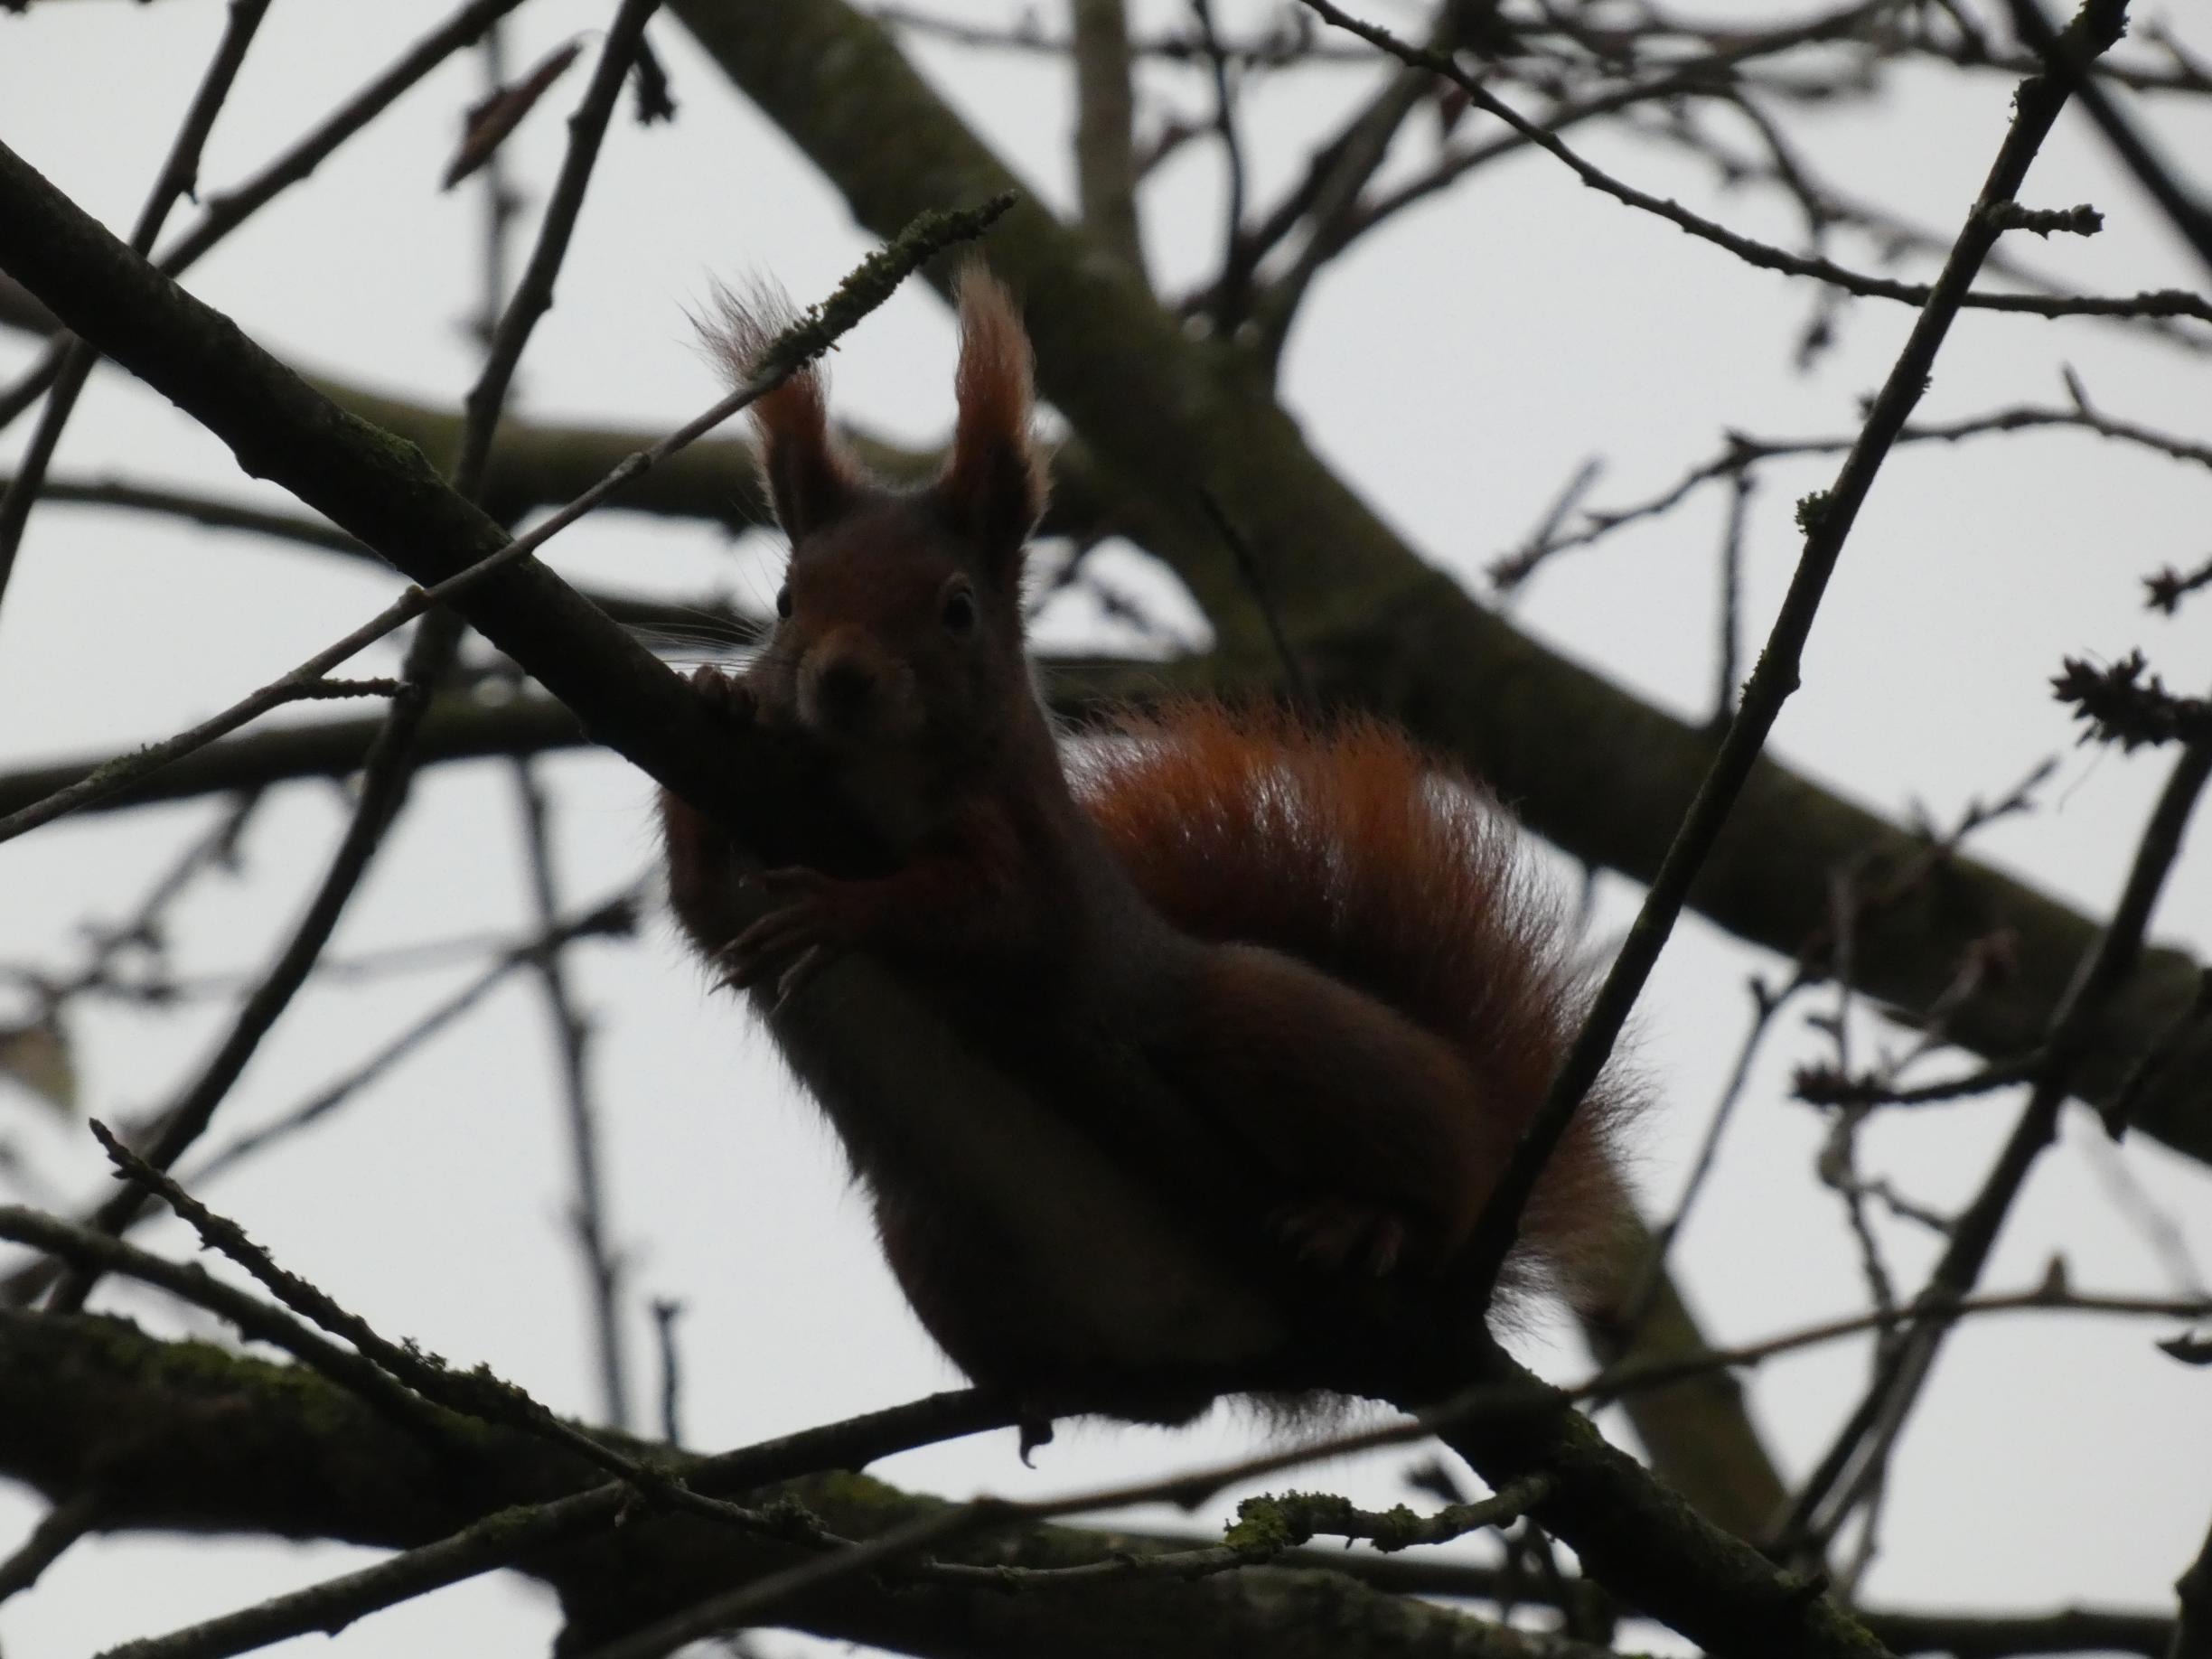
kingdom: Animalia
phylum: Chordata
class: Mammalia
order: Rodentia
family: Sciuridae
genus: Sciurus
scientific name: Sciurus vulgaris
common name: Egern
